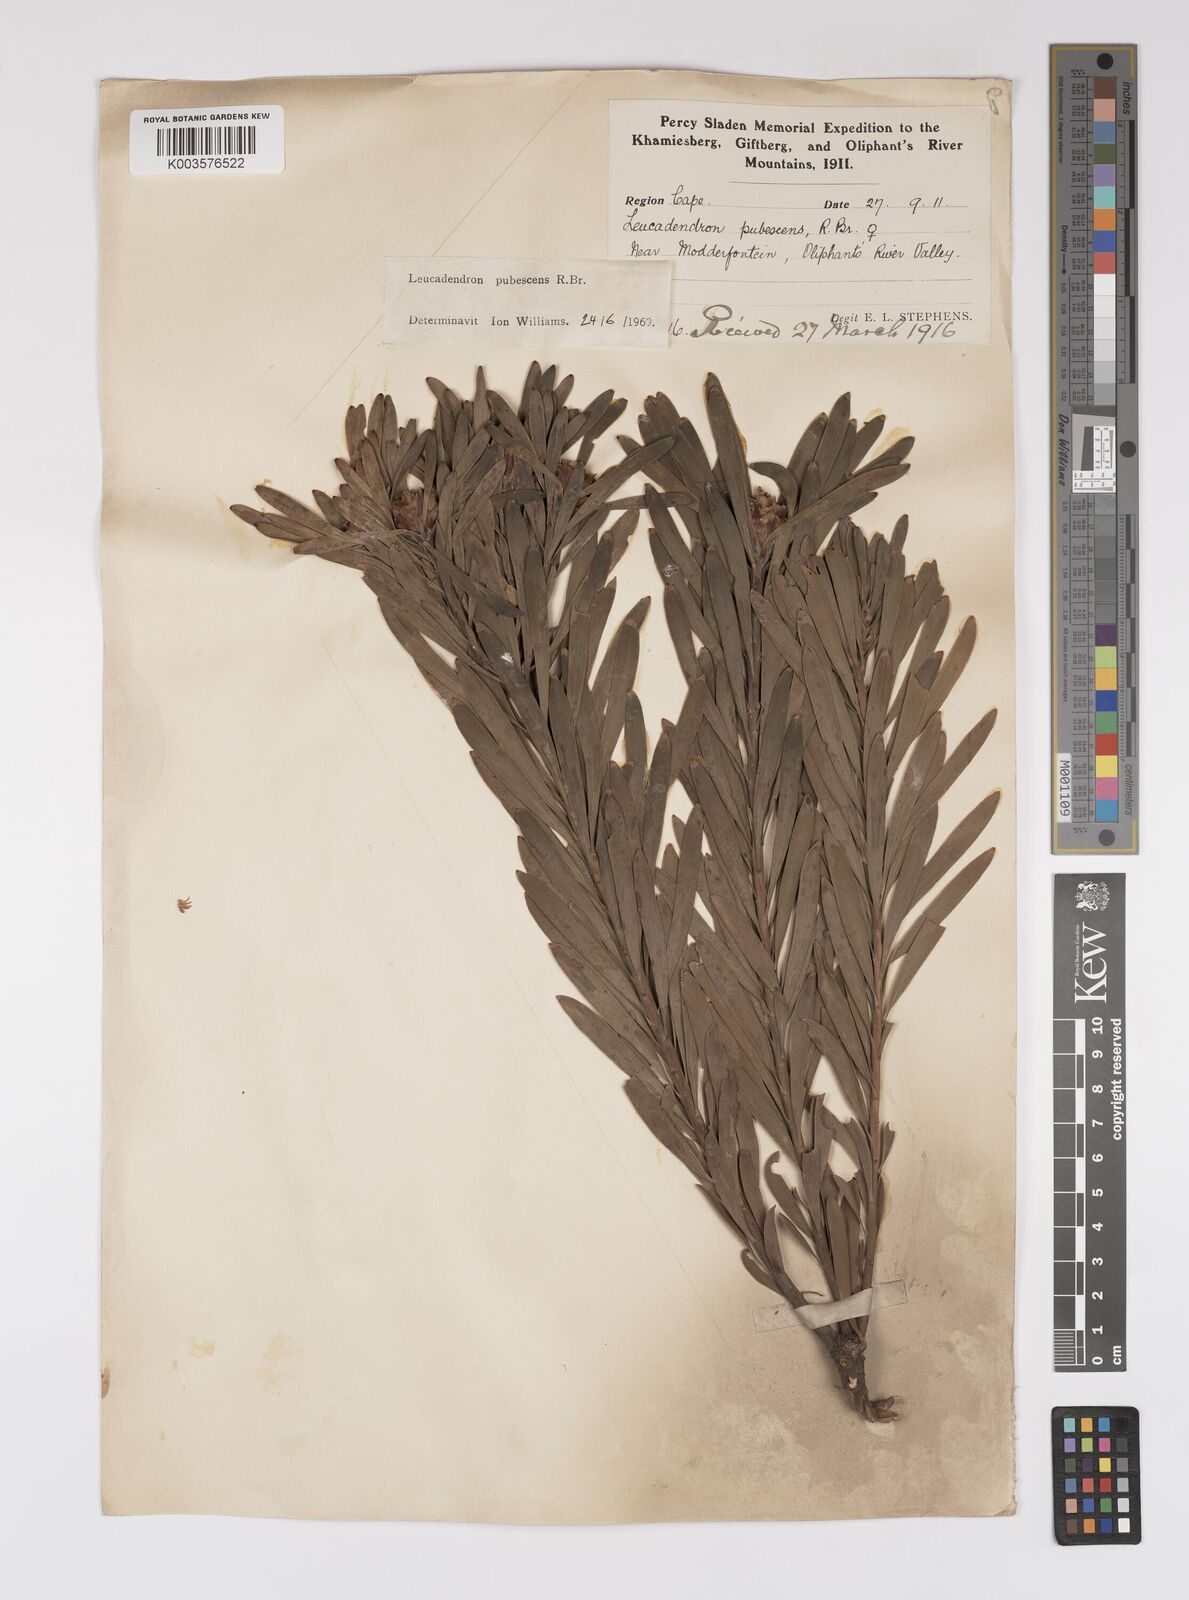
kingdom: Plantae
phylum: Tracheophyta
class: Magnoliopsida
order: Proteales
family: Proteaceae
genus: Leucadendron
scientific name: Leucadendron pubescens
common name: Grey conebush
